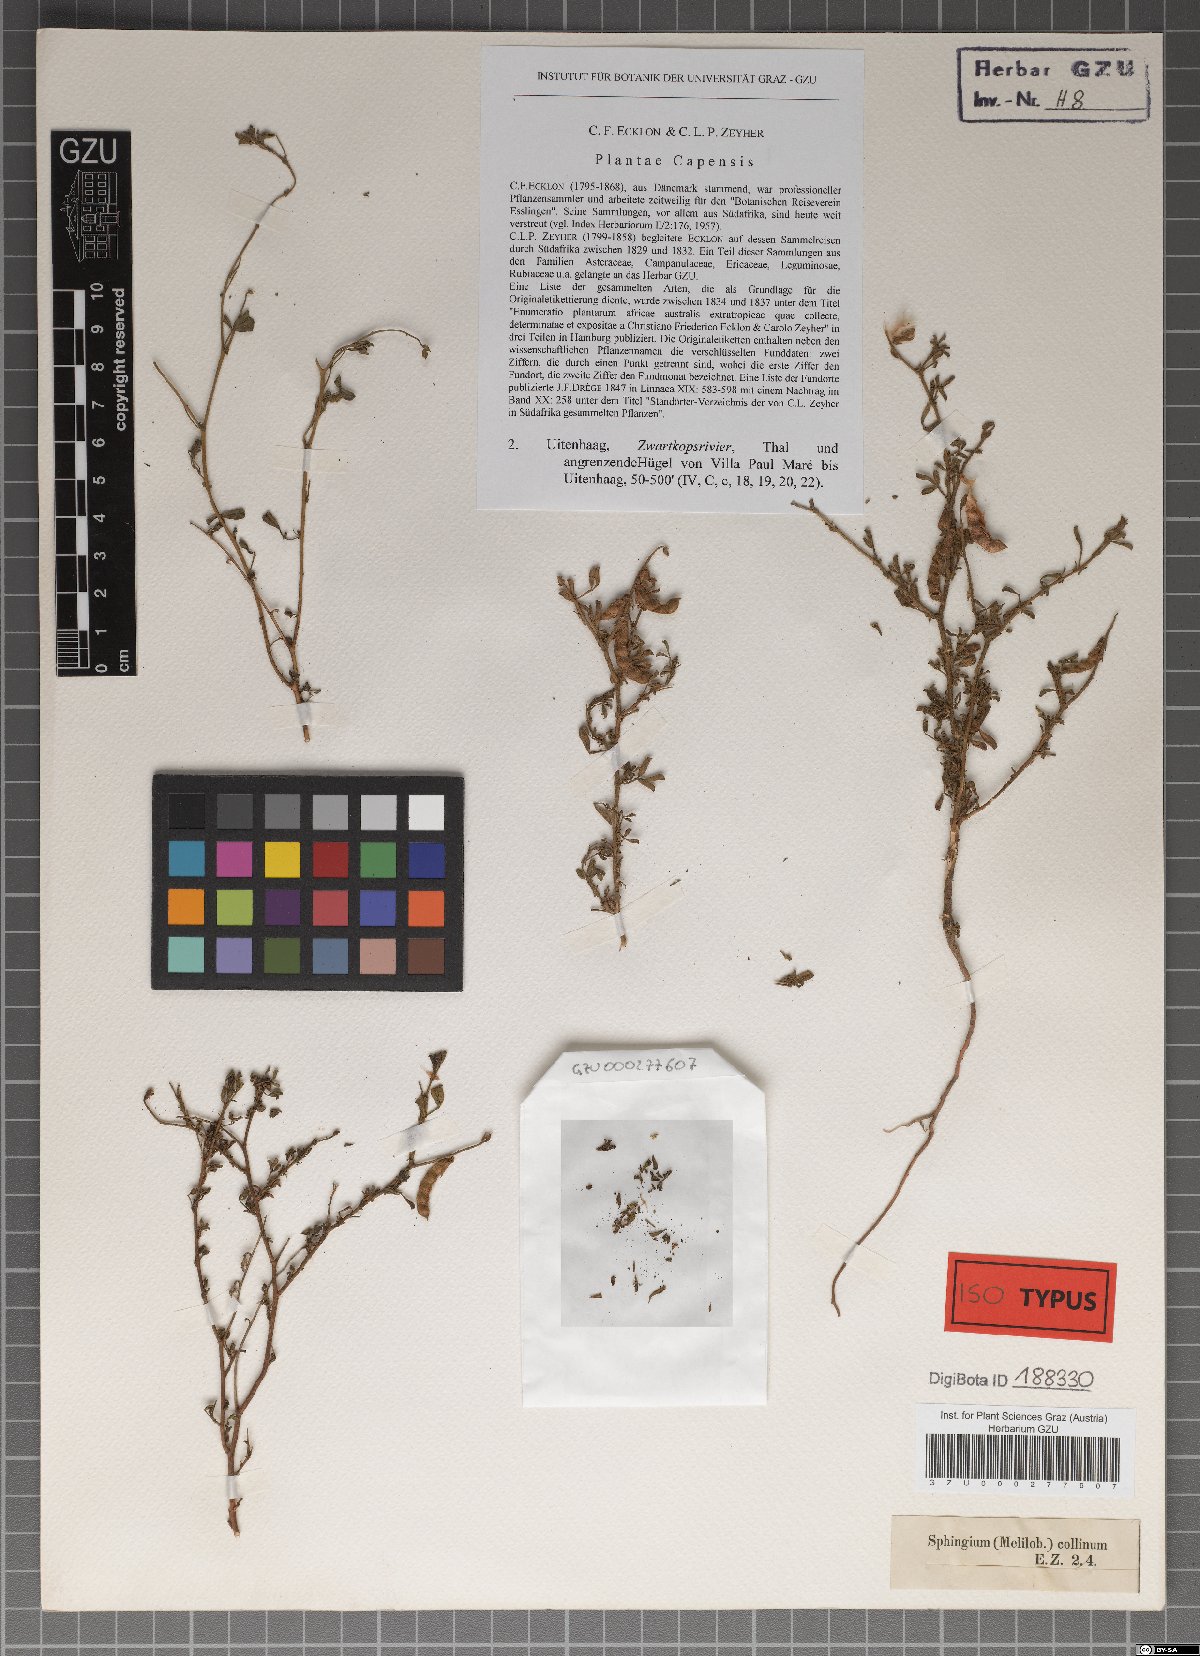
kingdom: Plantae
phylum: Tracheophyta
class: Magnoliopsida
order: Fabales
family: Fabaceae
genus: Melolobium
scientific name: Melolobium adenodes
